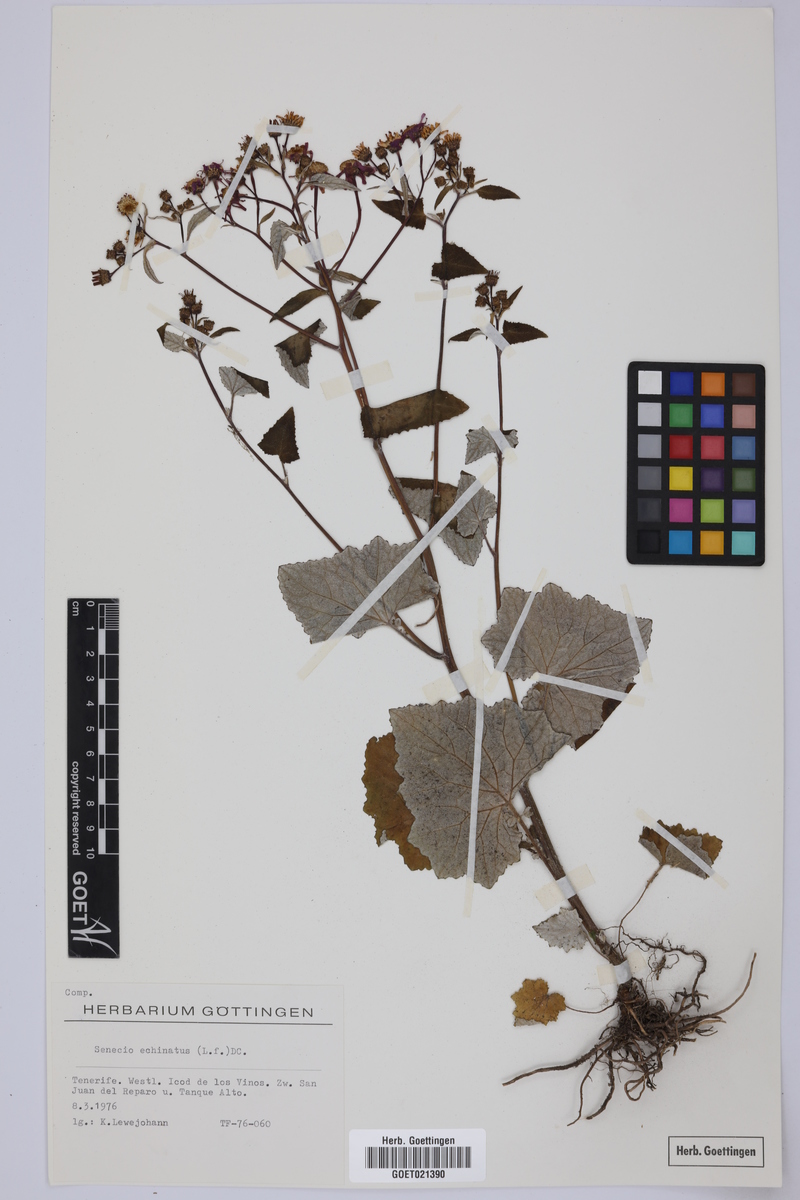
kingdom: Plantae
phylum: Tracheophyta
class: Magnoliopsida
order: Asterales
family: Asteraceae
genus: Pericallis
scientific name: Pericallis echinata
